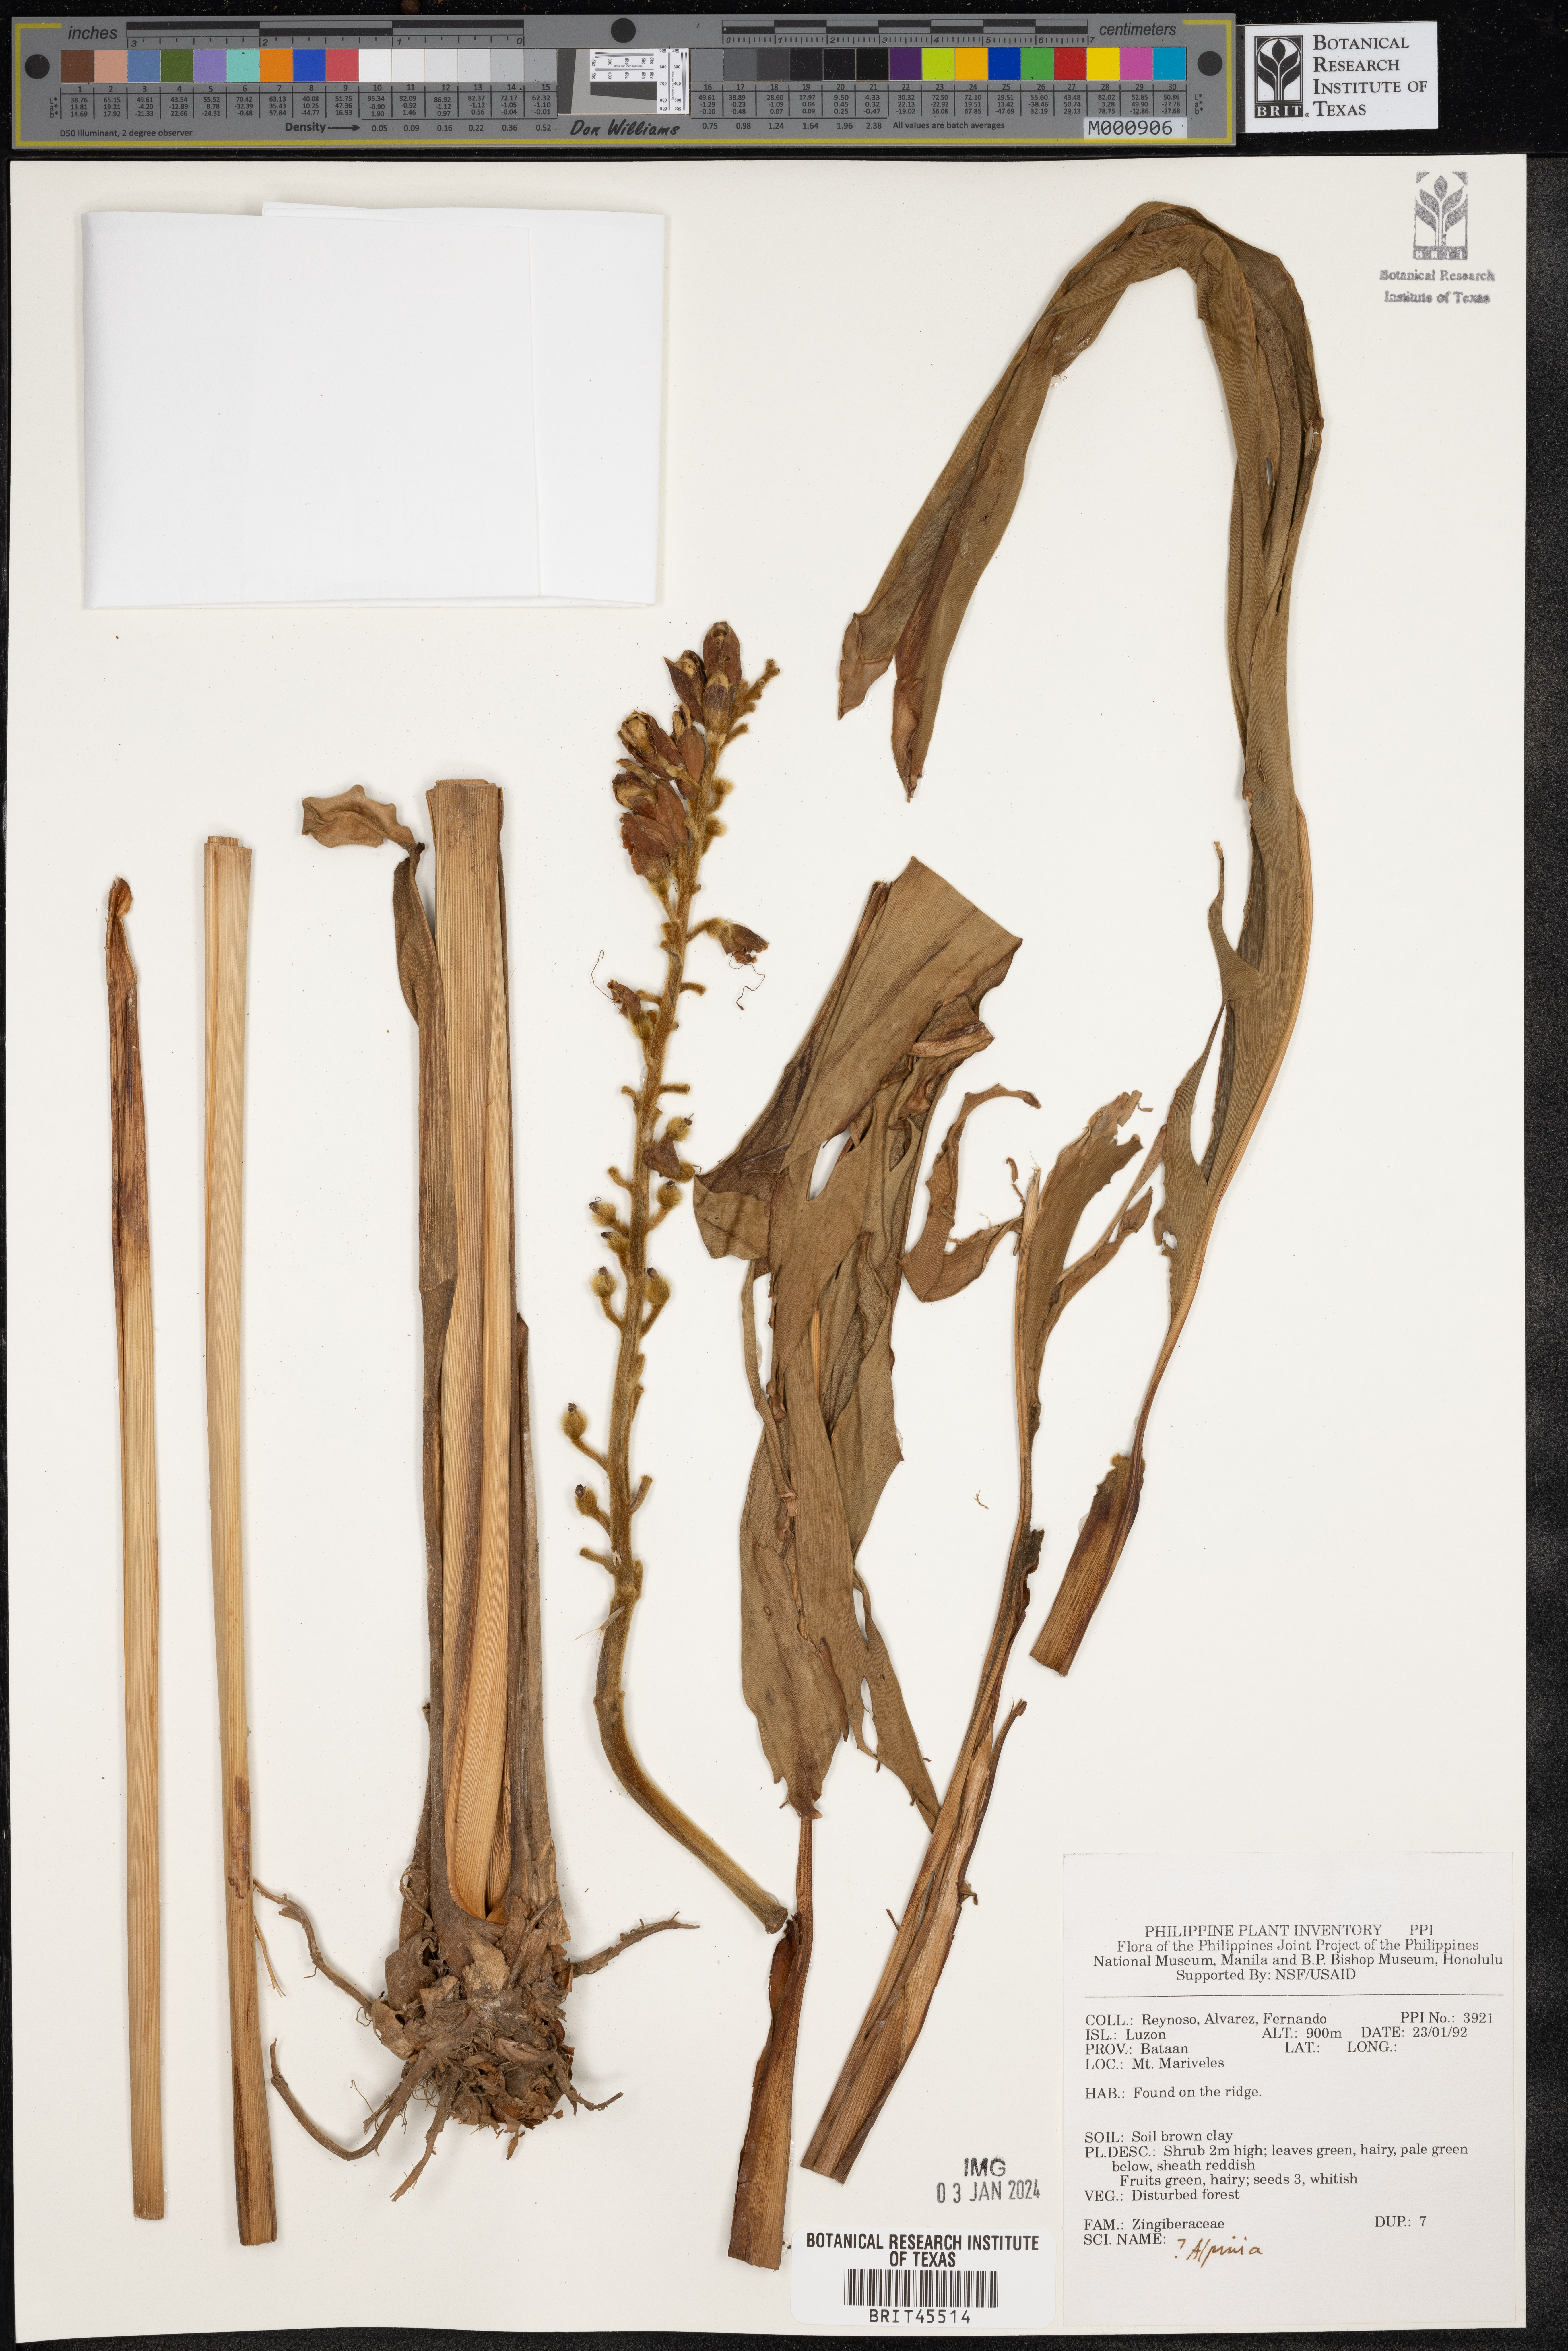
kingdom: Plantae
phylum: Tracheophyta
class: Liliopsida
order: Zingiberales
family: Zingiberaceae
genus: Alpinia
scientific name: Alpinia
